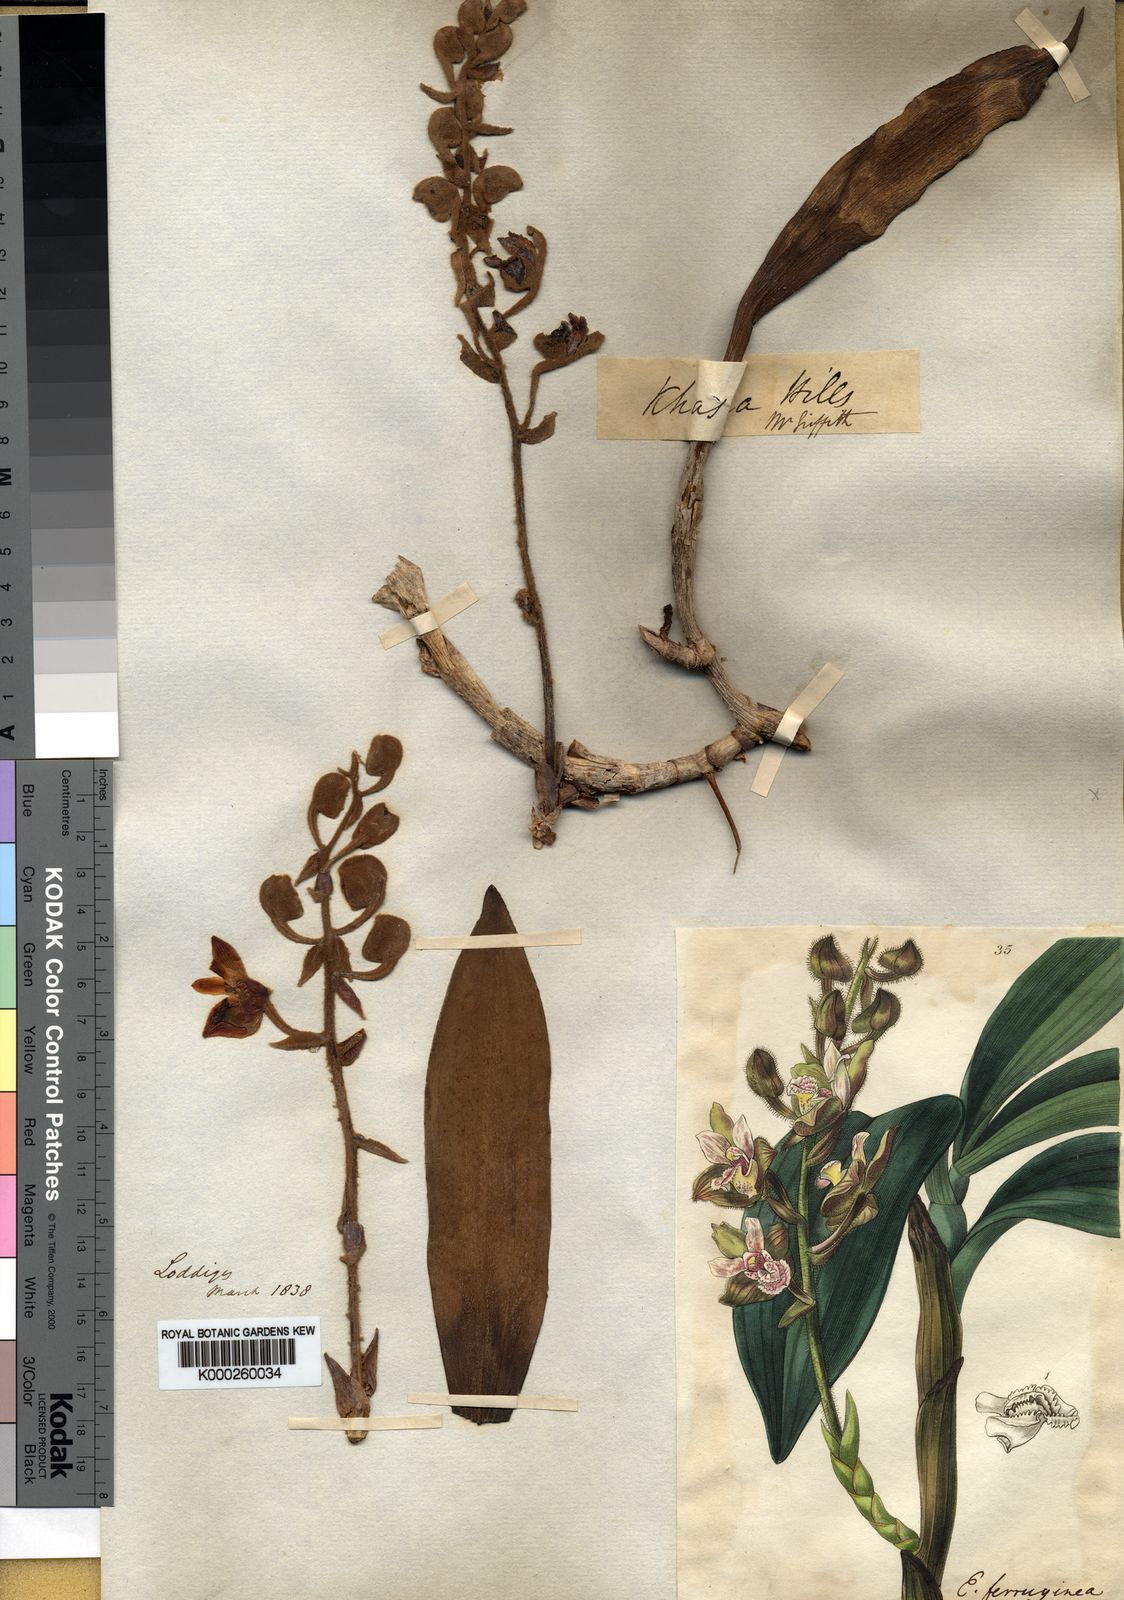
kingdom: Plantae
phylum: Tracheophyta
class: Liliopsida
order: Asparagales
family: Orchidaceae
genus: Dendrolirium
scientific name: Dendrolirium ferrugineum
